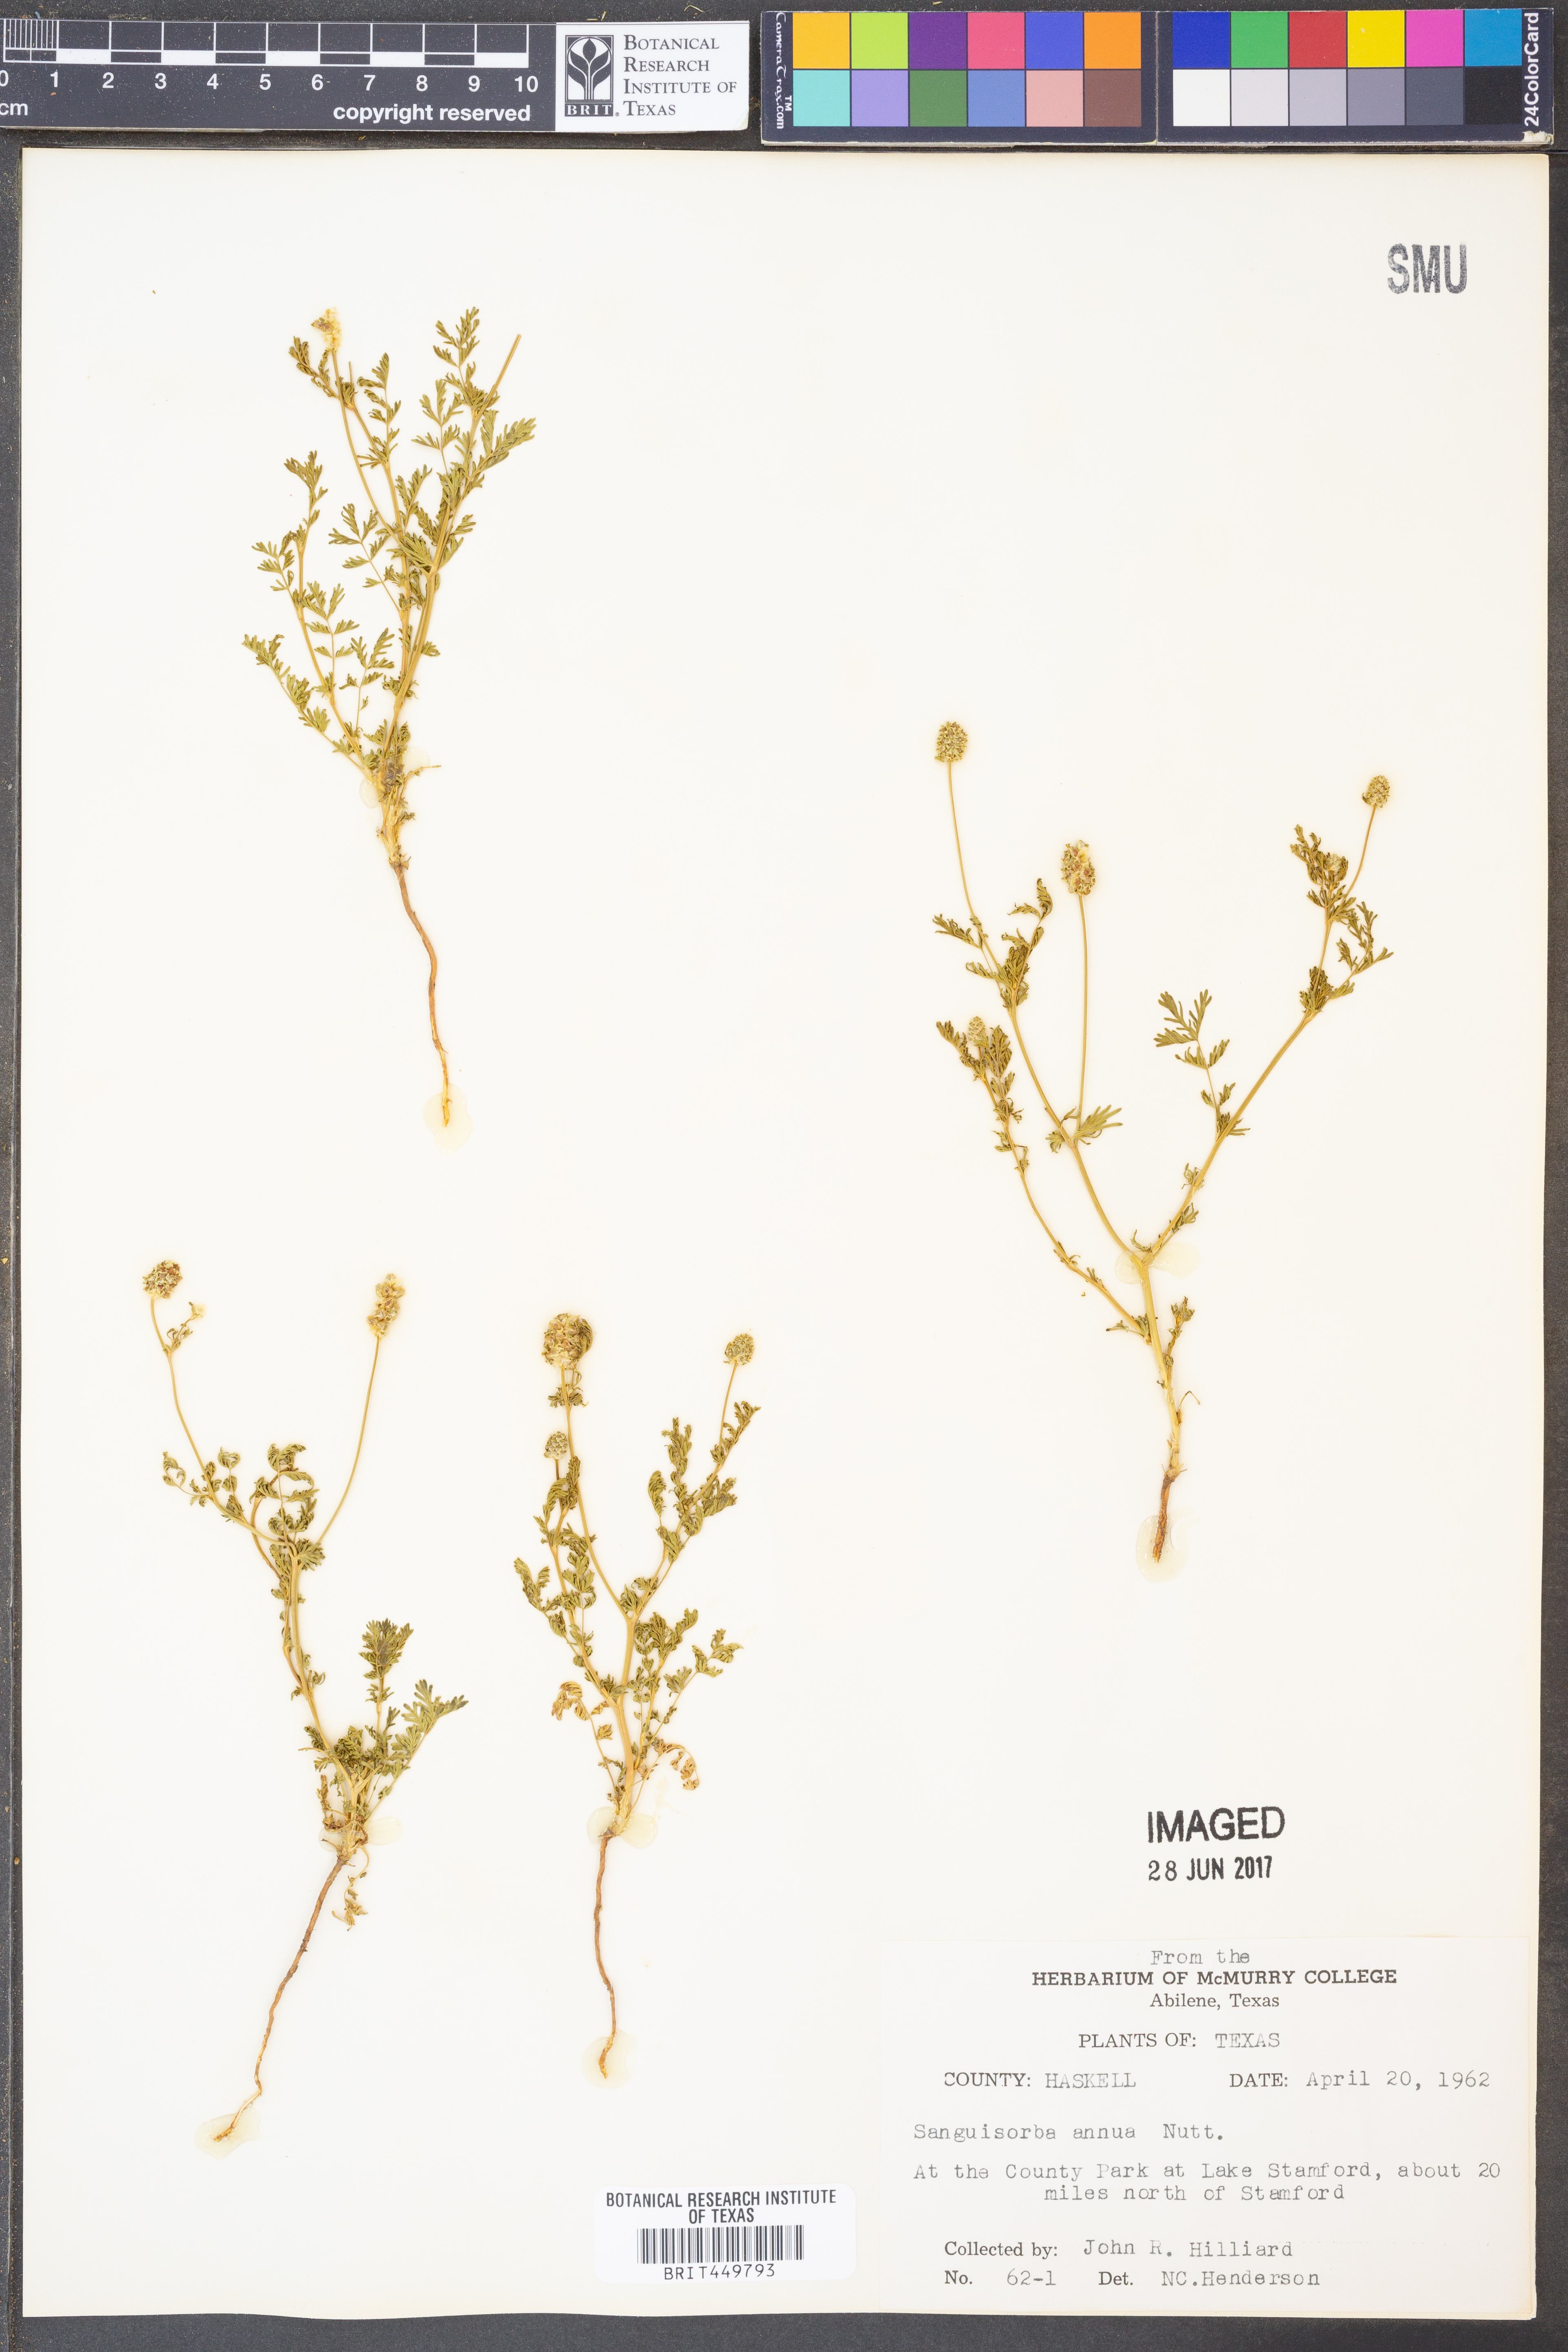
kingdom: Plantae
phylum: Tracheophyta
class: Magnoliopsida
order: Rosales
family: Rosaceae
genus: Poteridium
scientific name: Poteridium annuum
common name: Annual burnet
